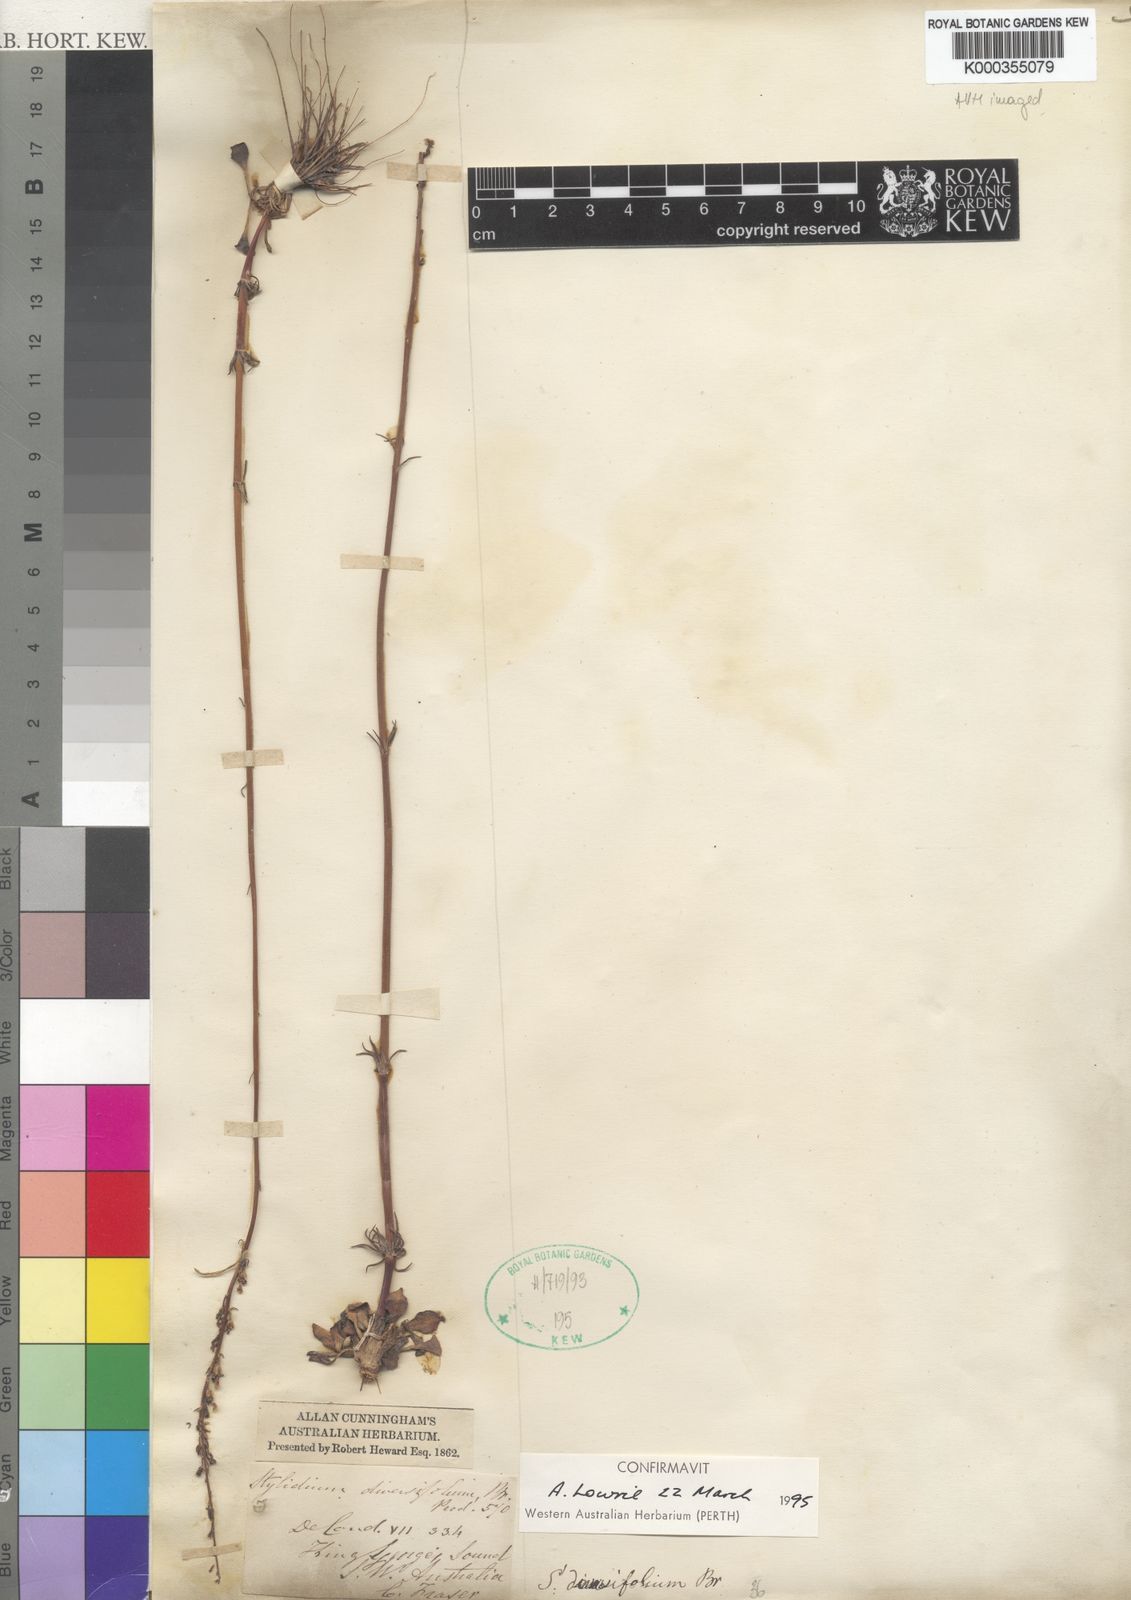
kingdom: Plantae
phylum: Tracheophyta
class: Magnoliopsida
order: Asterales
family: Stylidiaceae
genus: Stylidium
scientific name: Stylidium diversifolium
